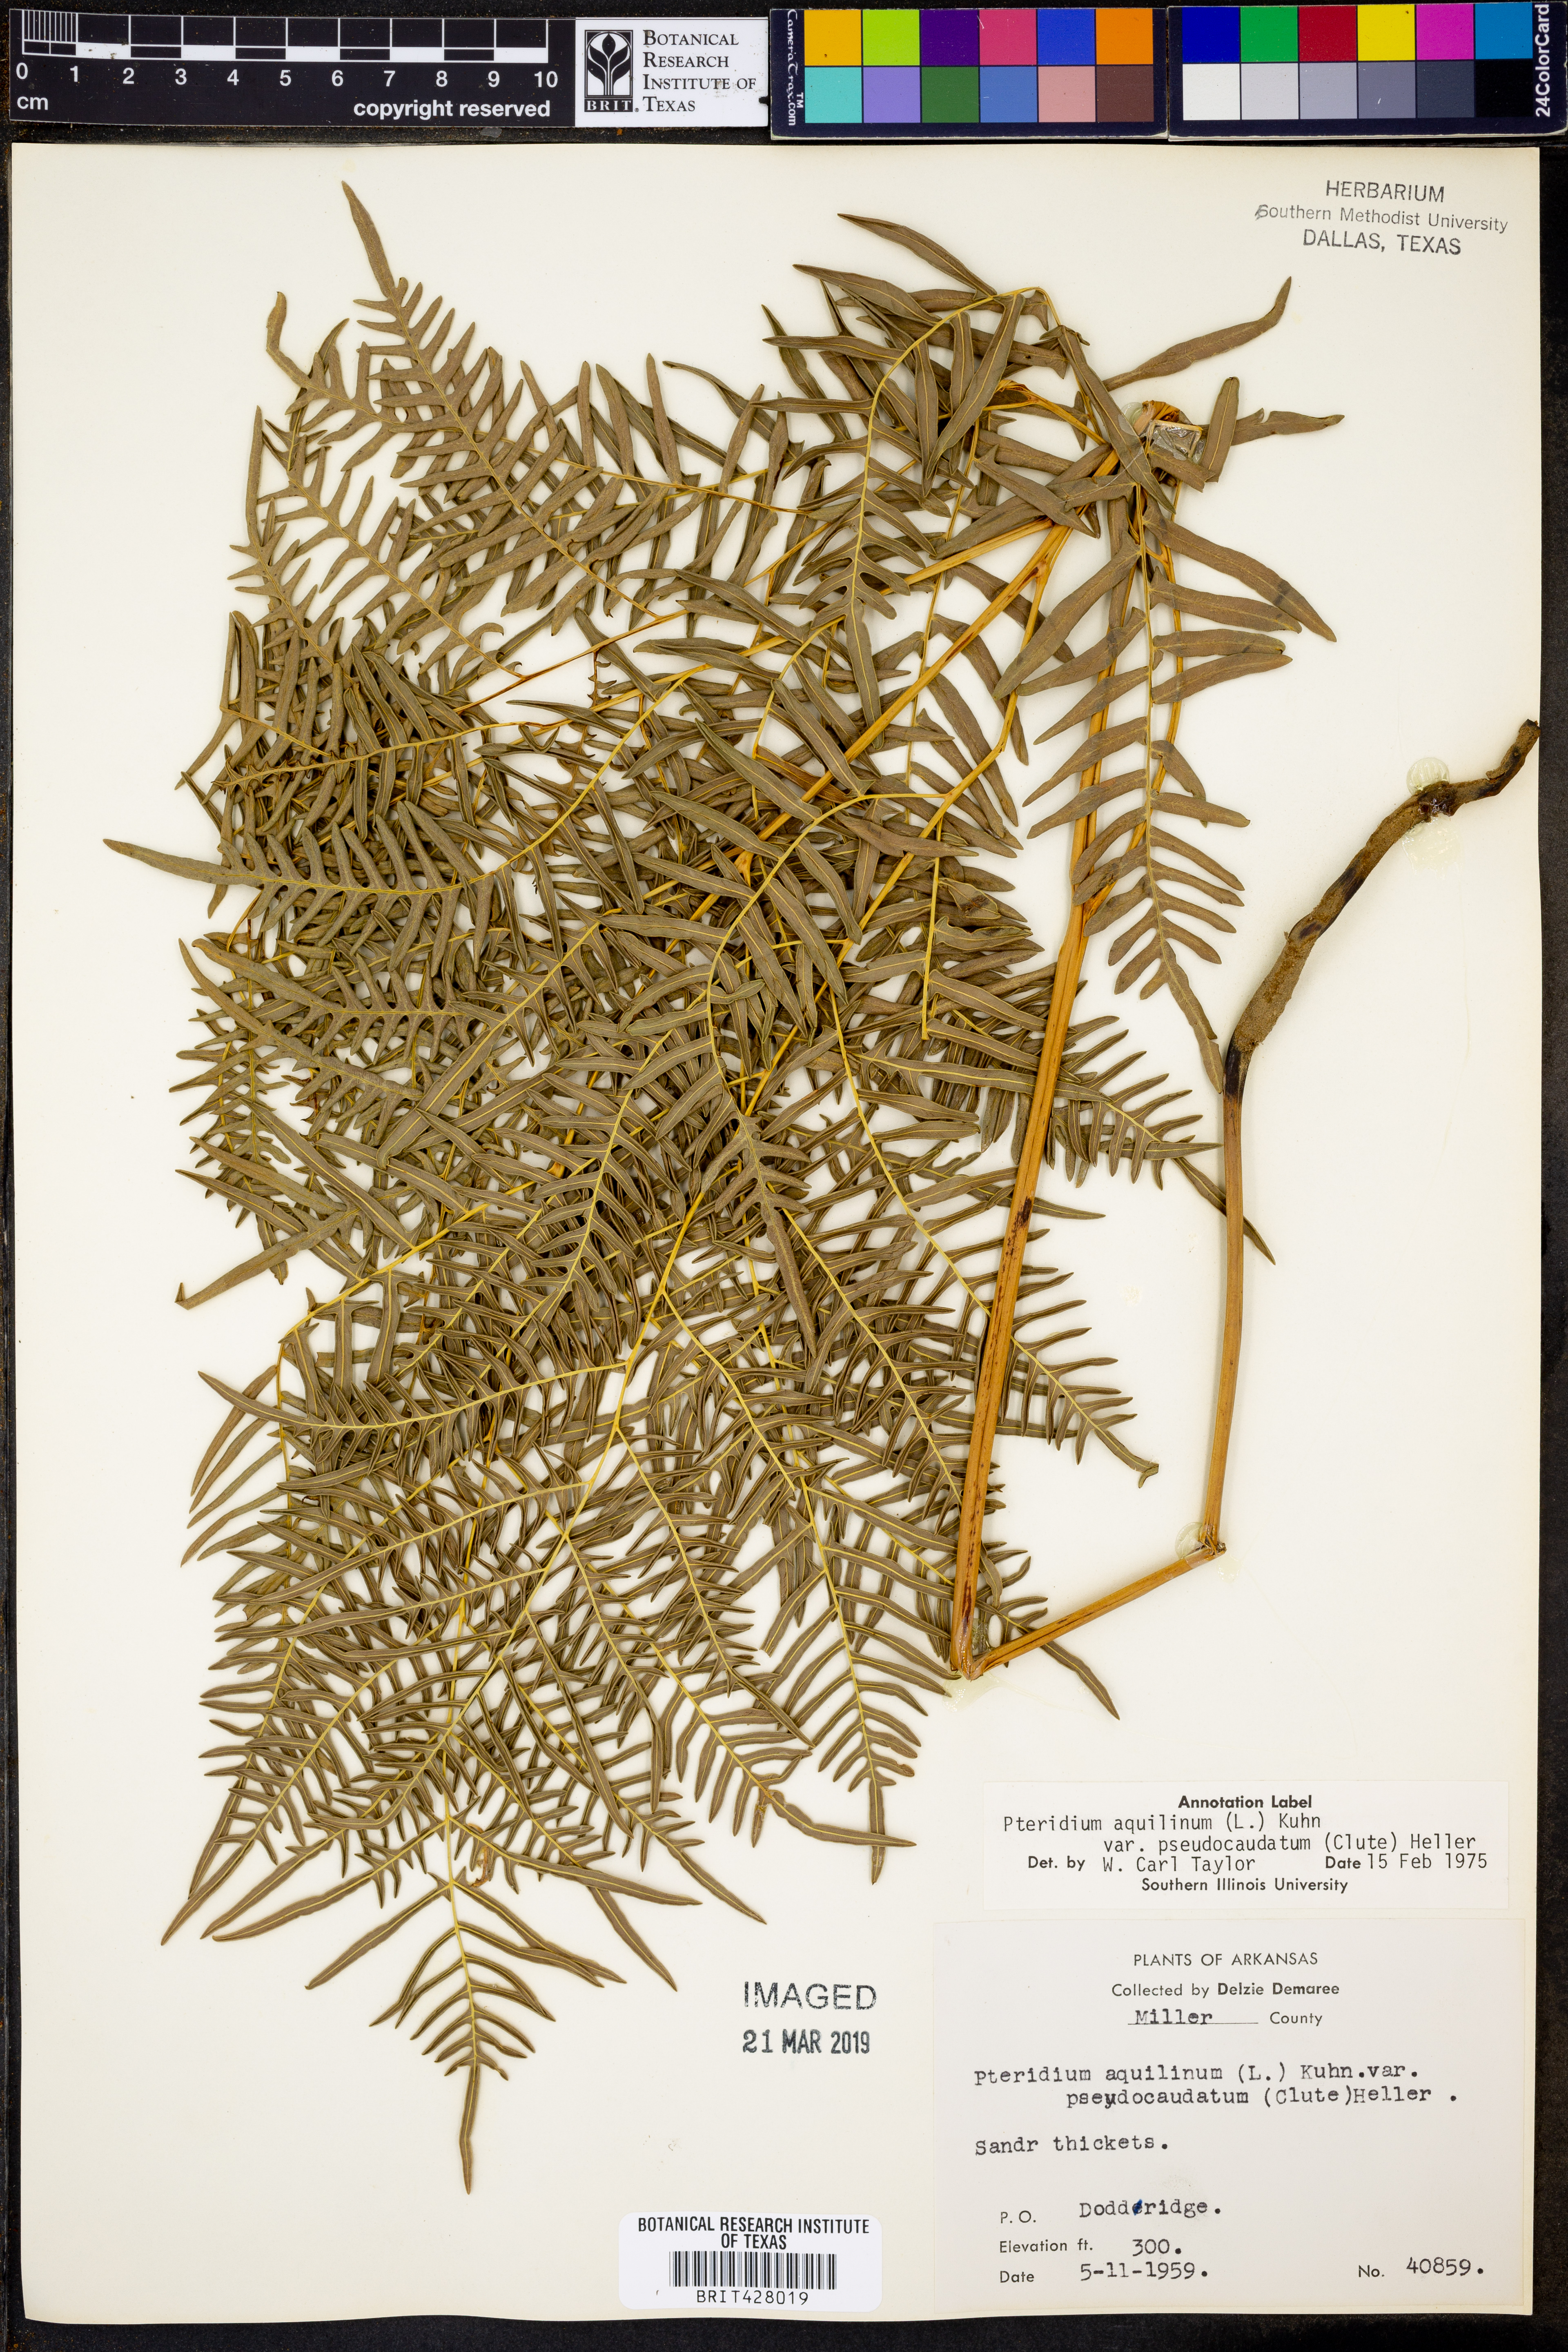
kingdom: Plantae
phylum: Tracheophyta
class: Polypodiopsida
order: Polypodiales
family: Dennstaedtiaceae
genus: Pteridium
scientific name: Pteridium aquilinum
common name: Bracken
